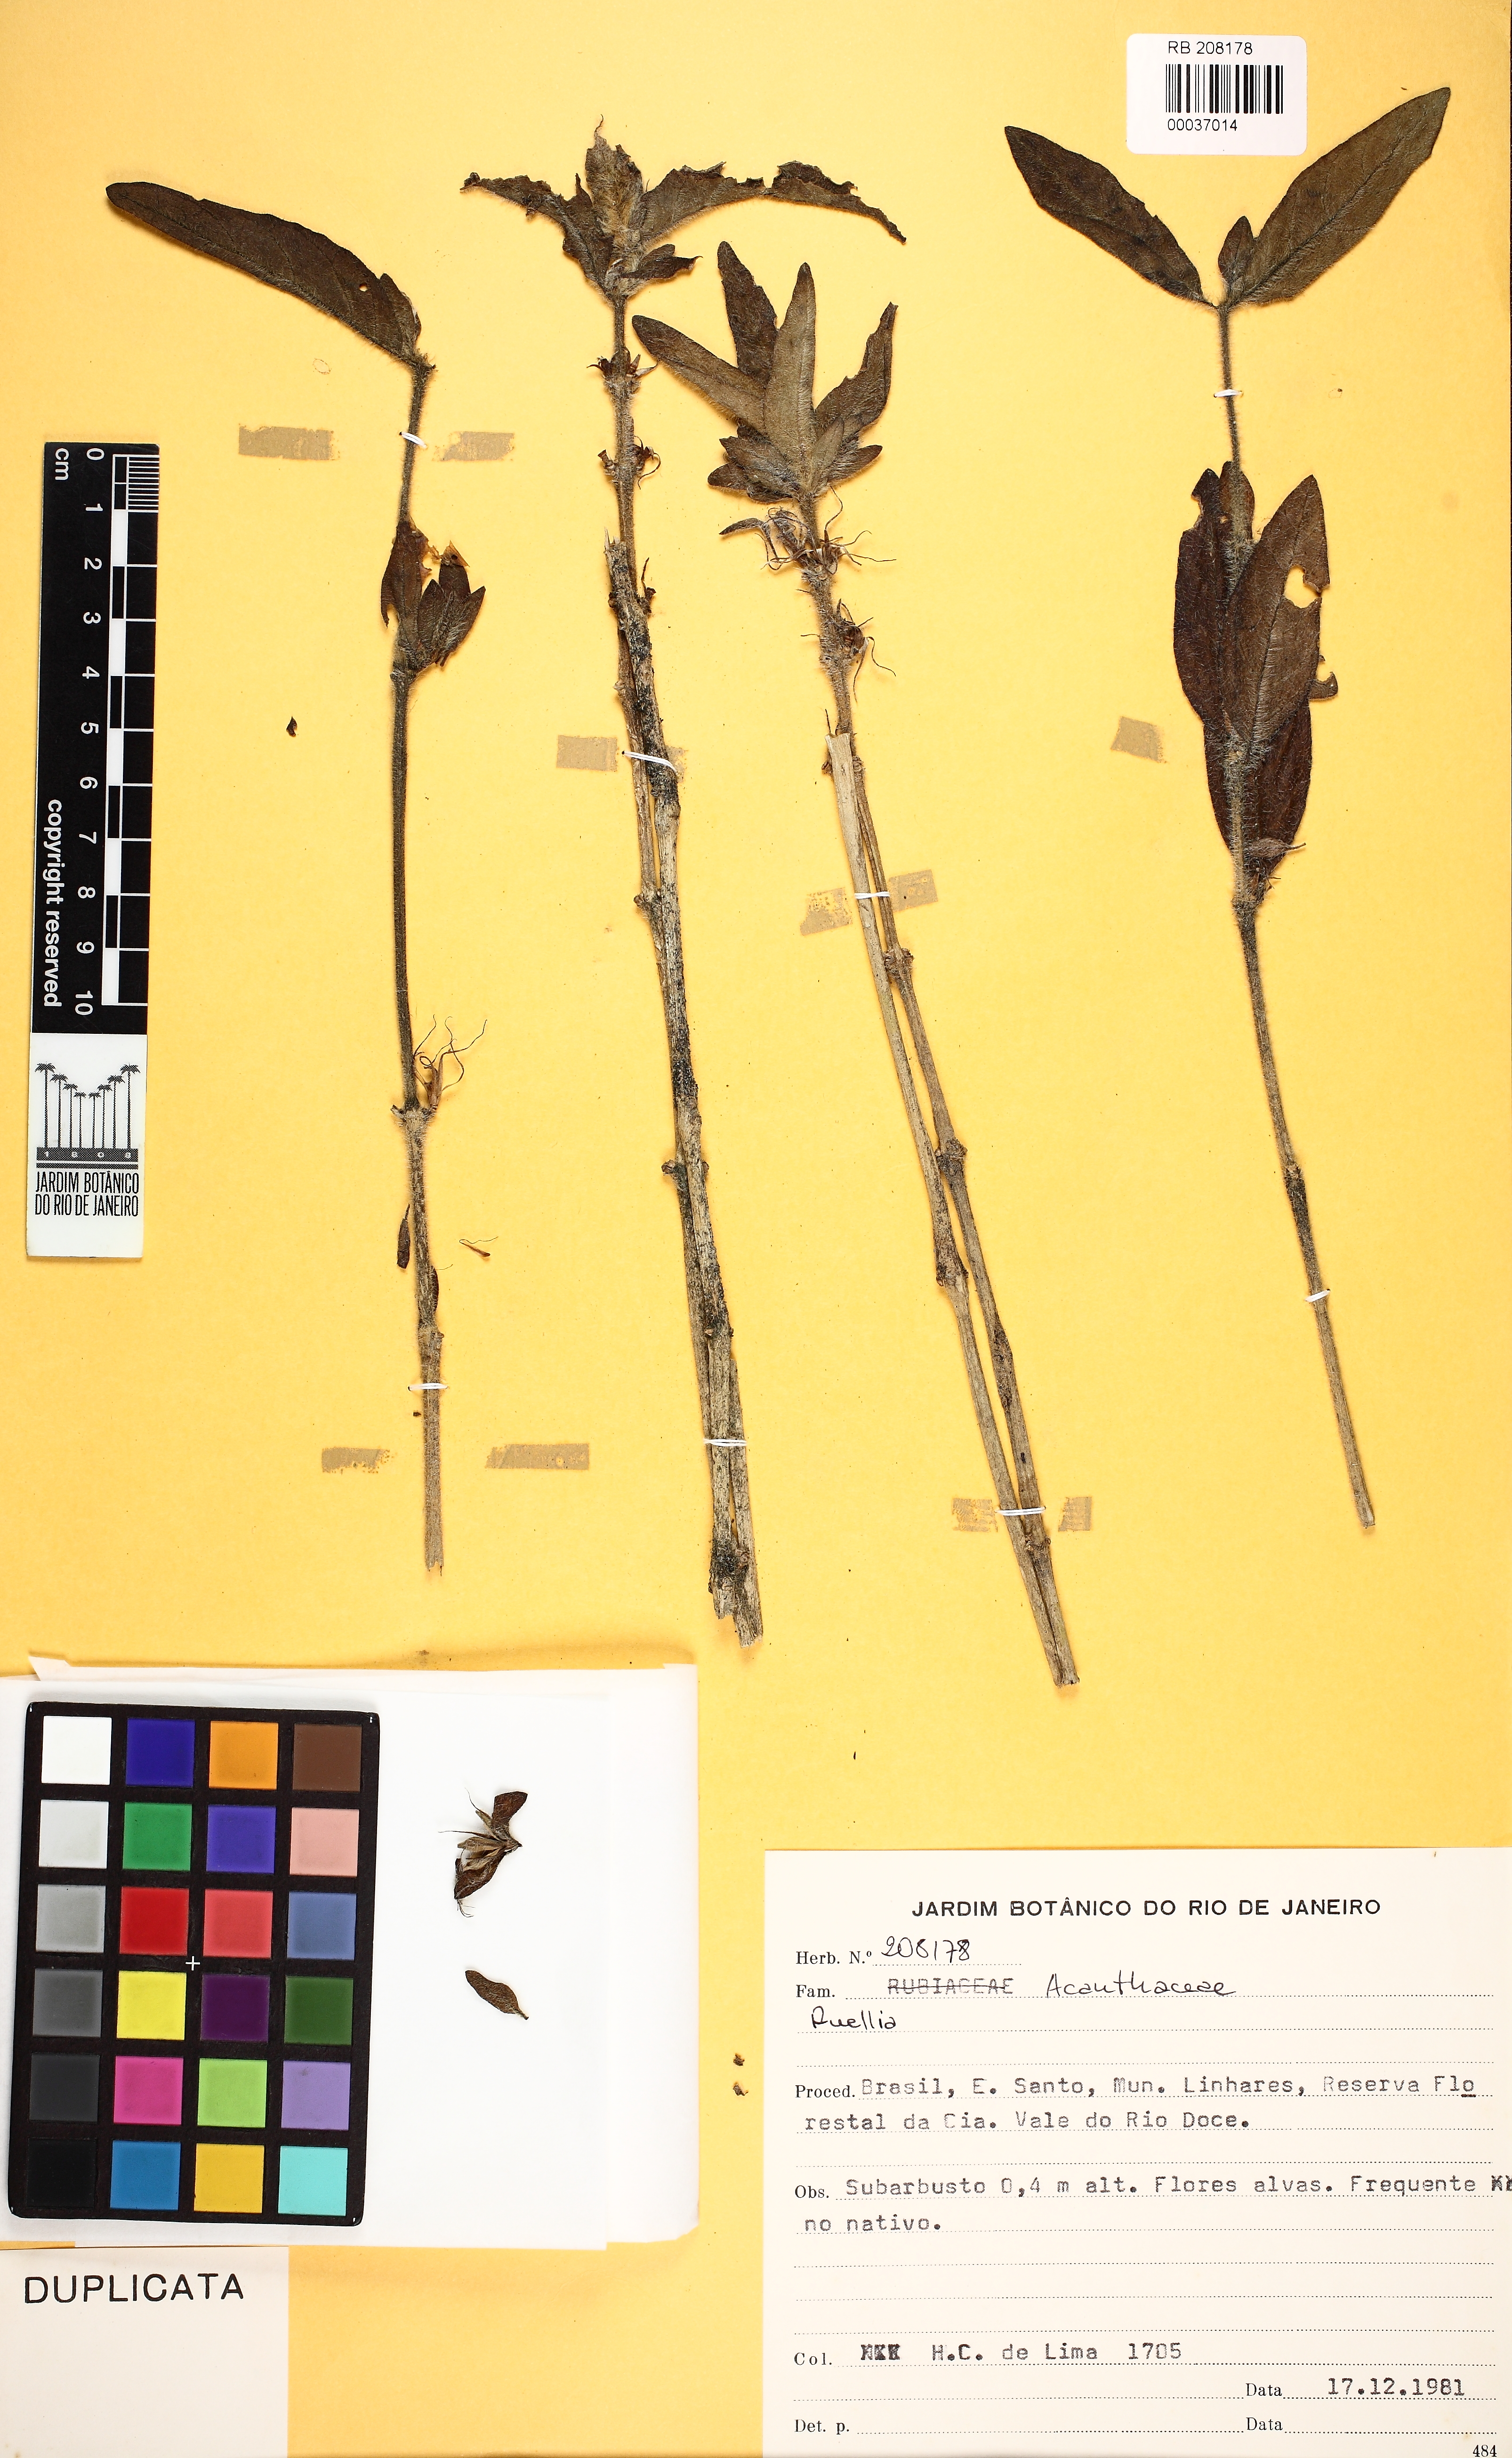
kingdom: Plantae
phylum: Tracheophyta
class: Magnoliopsida
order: Lamiales
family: Acanthaceae
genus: Ruellia
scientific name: Ruellia
